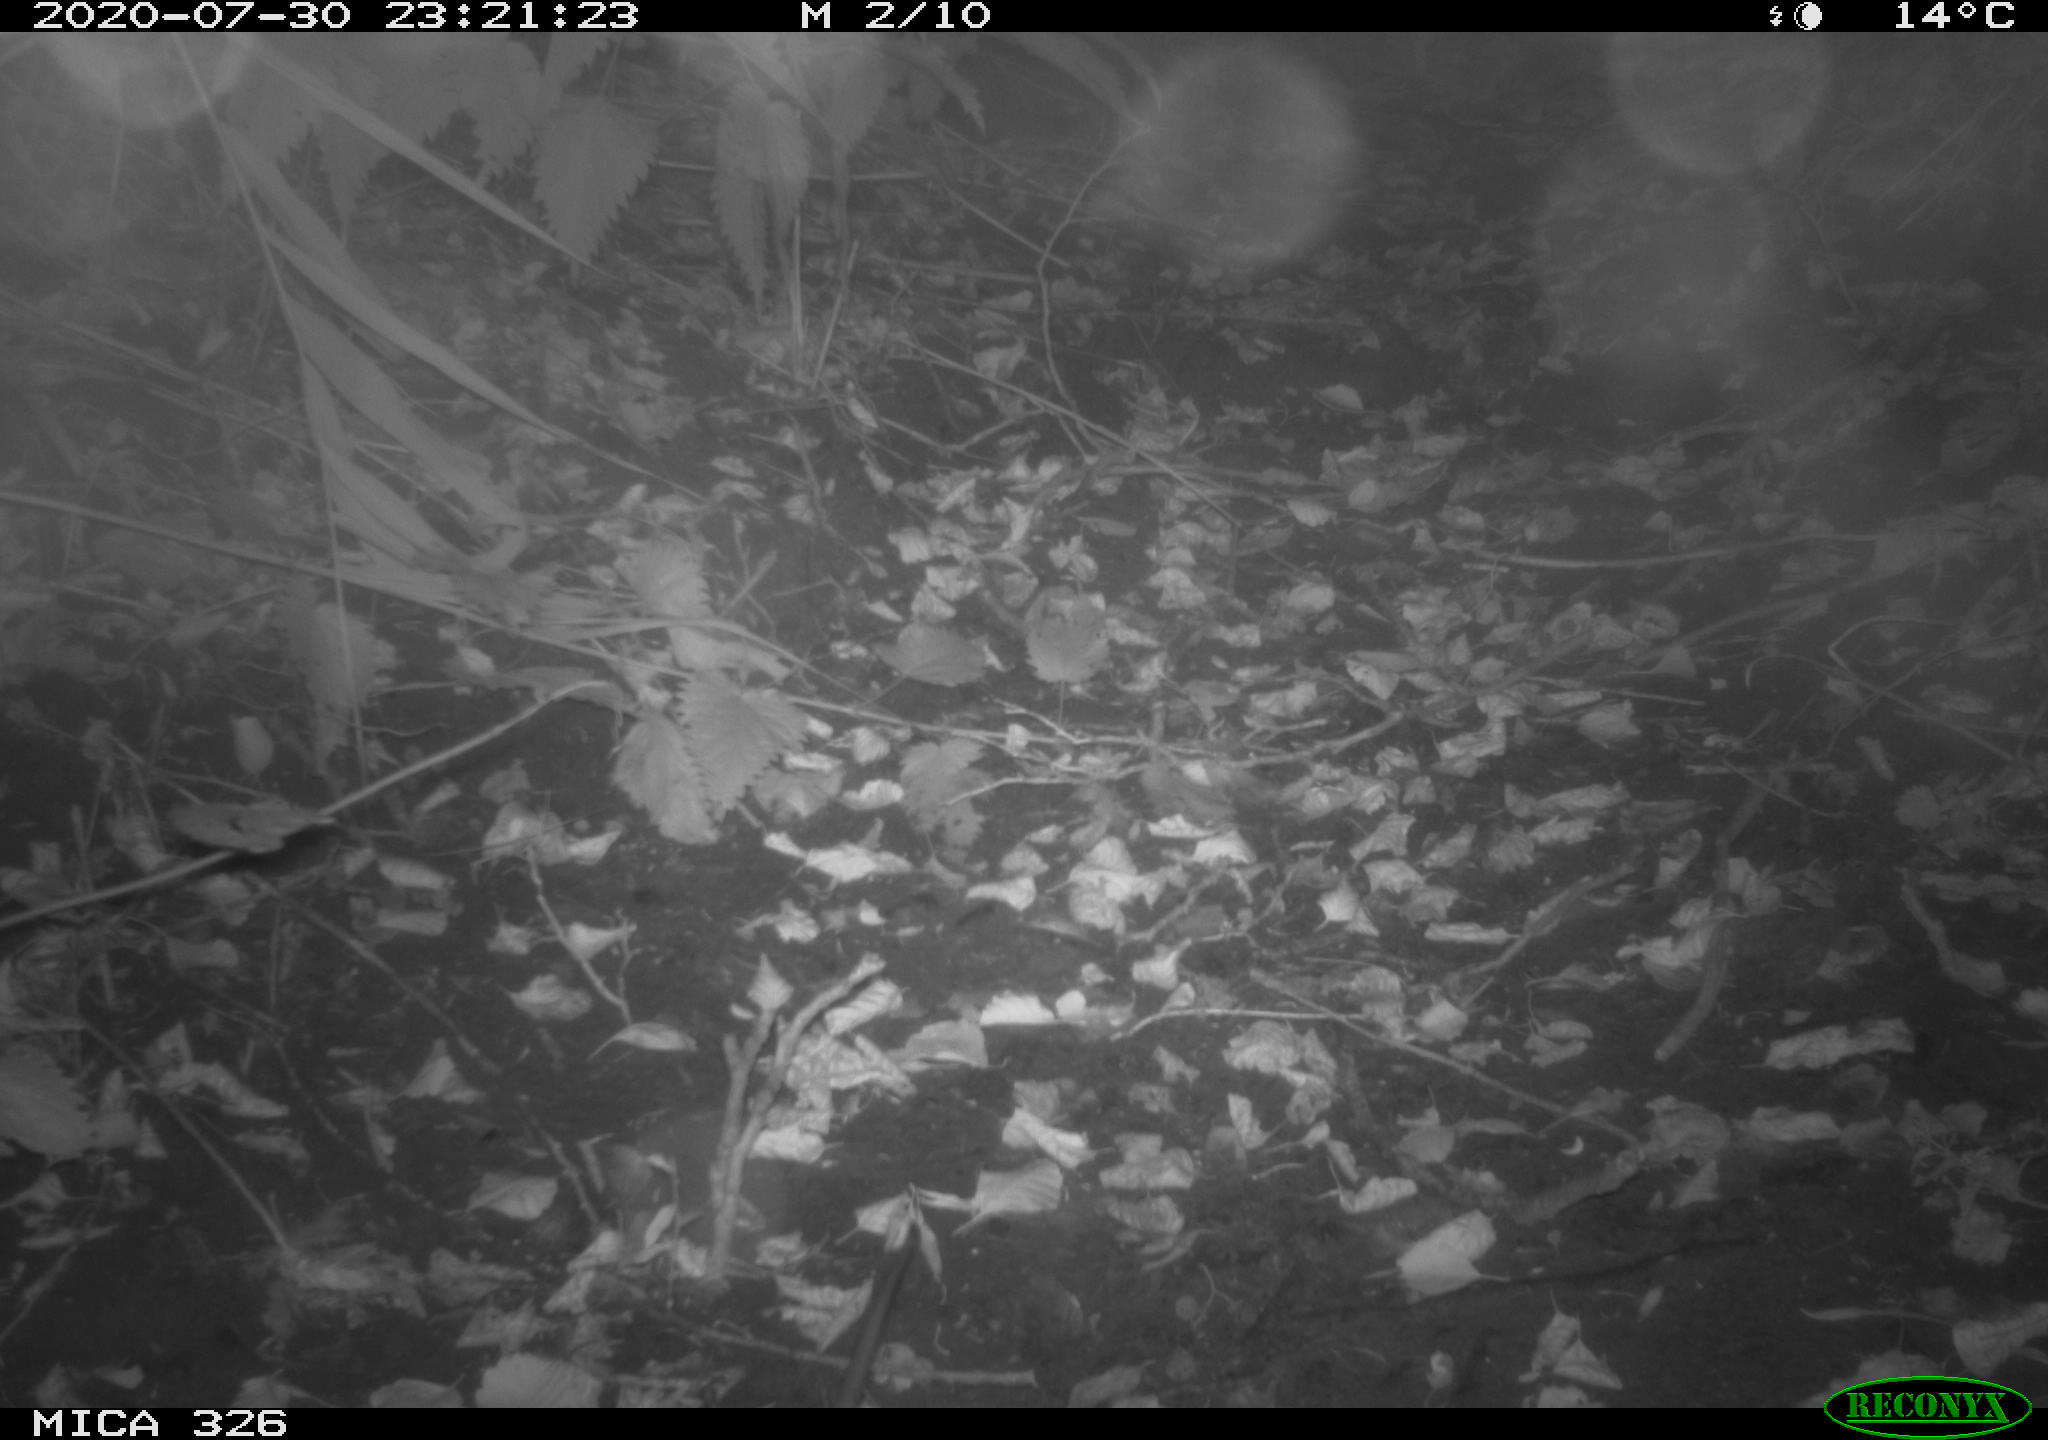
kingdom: Animalia
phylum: Chordata
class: Mammalia
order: Rodentia
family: Muridae
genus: Rattus
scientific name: Rattus norvegicus
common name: Brown rat
